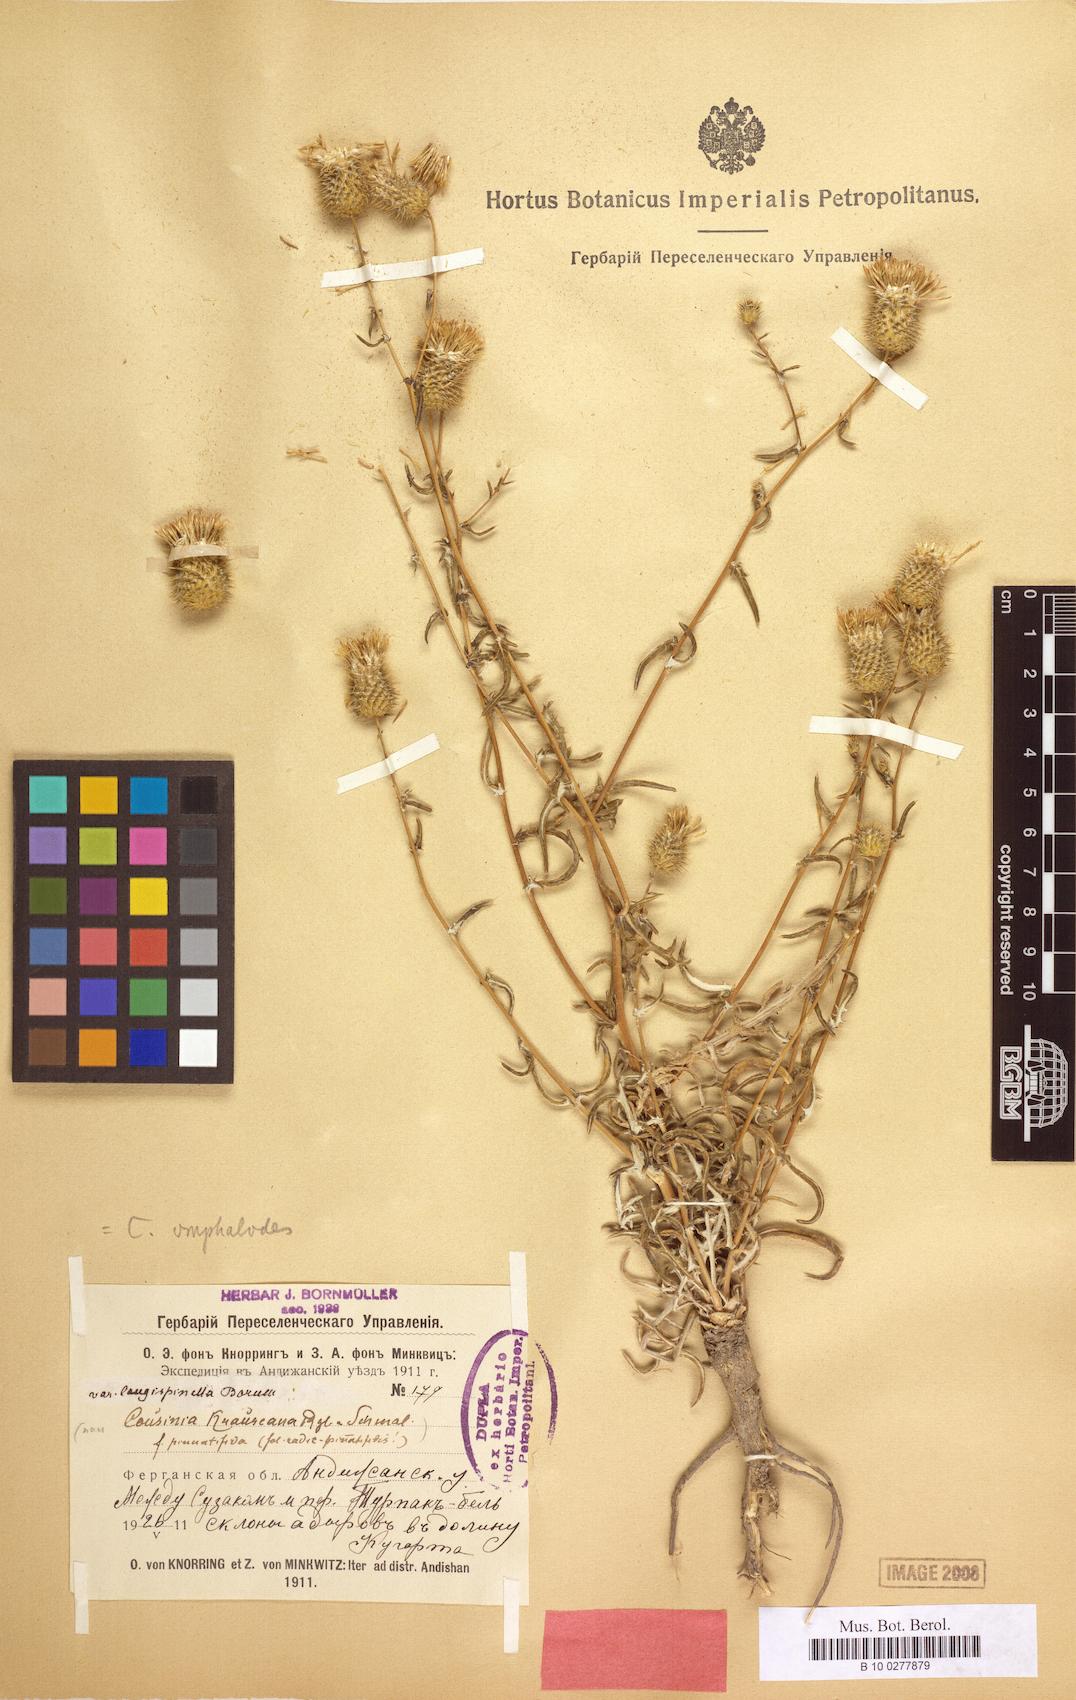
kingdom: Plantae
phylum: Tracheophyta
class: Magnoliopsida
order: Asterales
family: Asteraceae
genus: Cousinia
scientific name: Cousinia omphalodes
